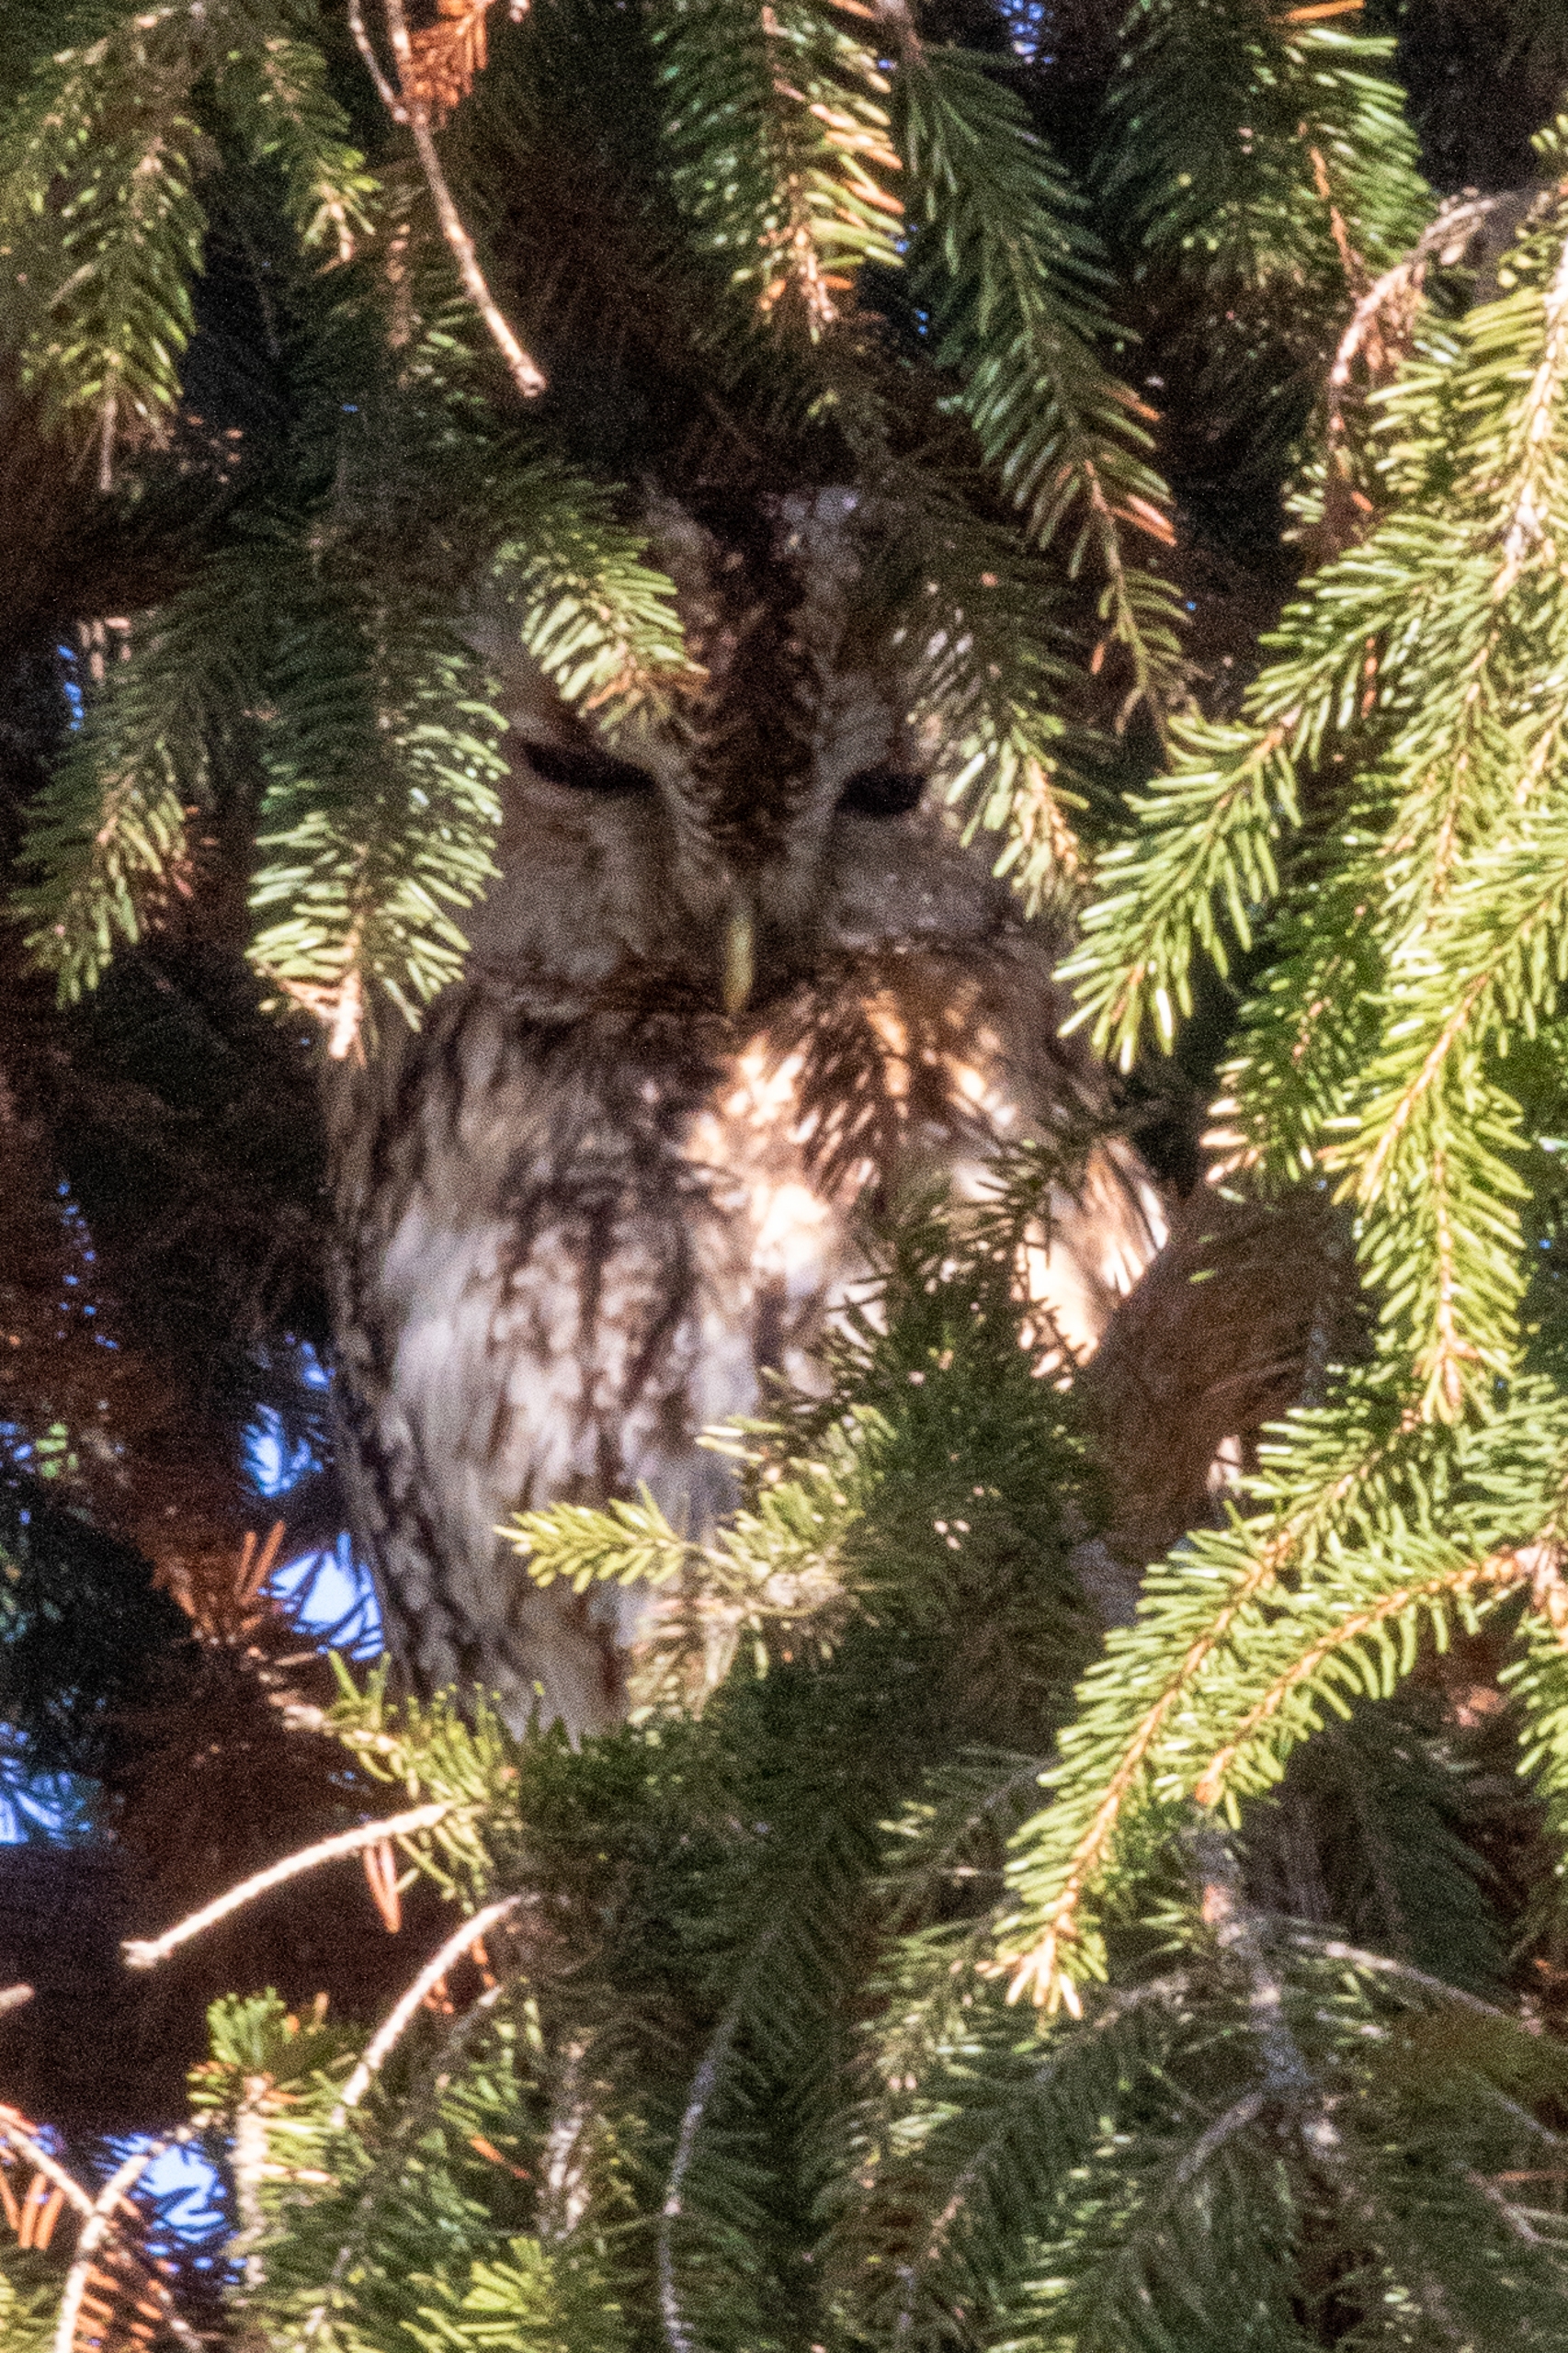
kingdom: Animalia
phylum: Chordata
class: Aves
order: Strigiformes
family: Strigidae
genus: Strix
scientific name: Strix aluco
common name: Natugle
